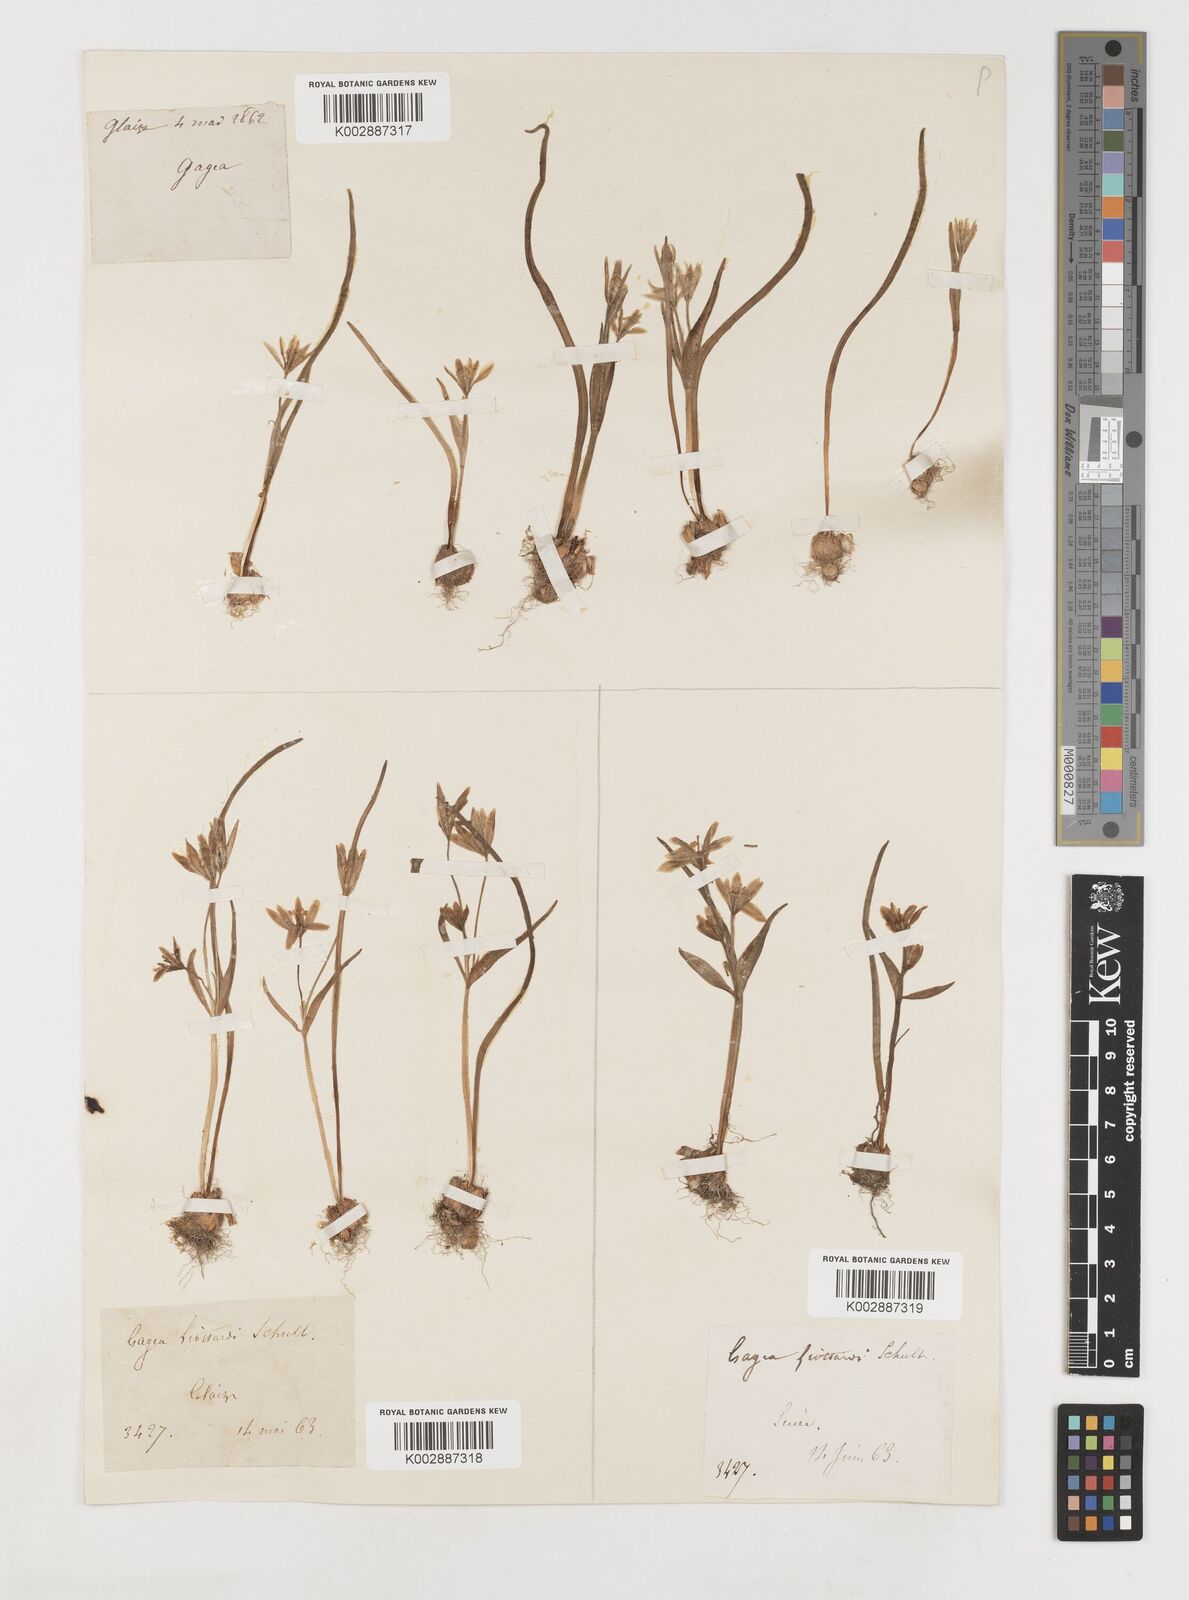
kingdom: Plantae
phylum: Tracheophyta
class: Liliopsida
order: Liliales
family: Liliaceae
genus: Gagea
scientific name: Gagea bohemica
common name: Early star-of-bethlehem
